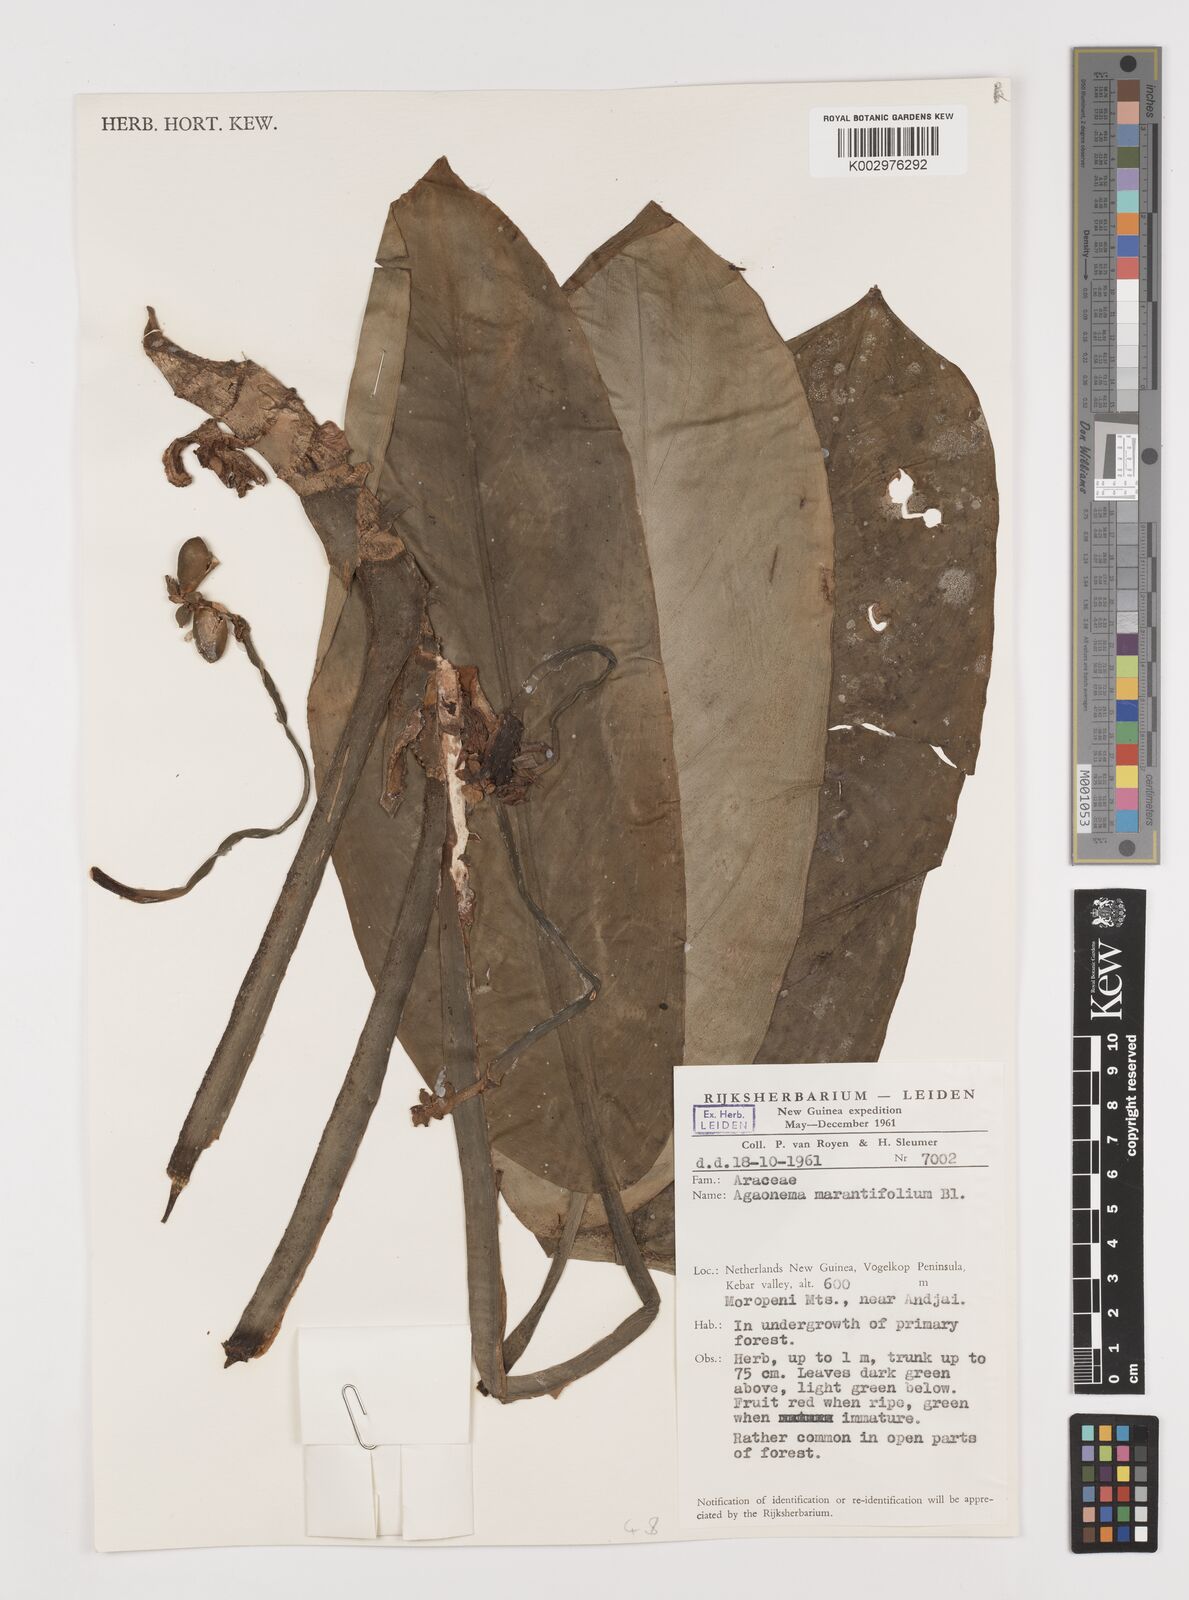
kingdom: Plantae
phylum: Tracheophyta
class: Liliopsida
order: Alismatales
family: Araceae
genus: Aglaonema
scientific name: Aglaonema marantifolium
